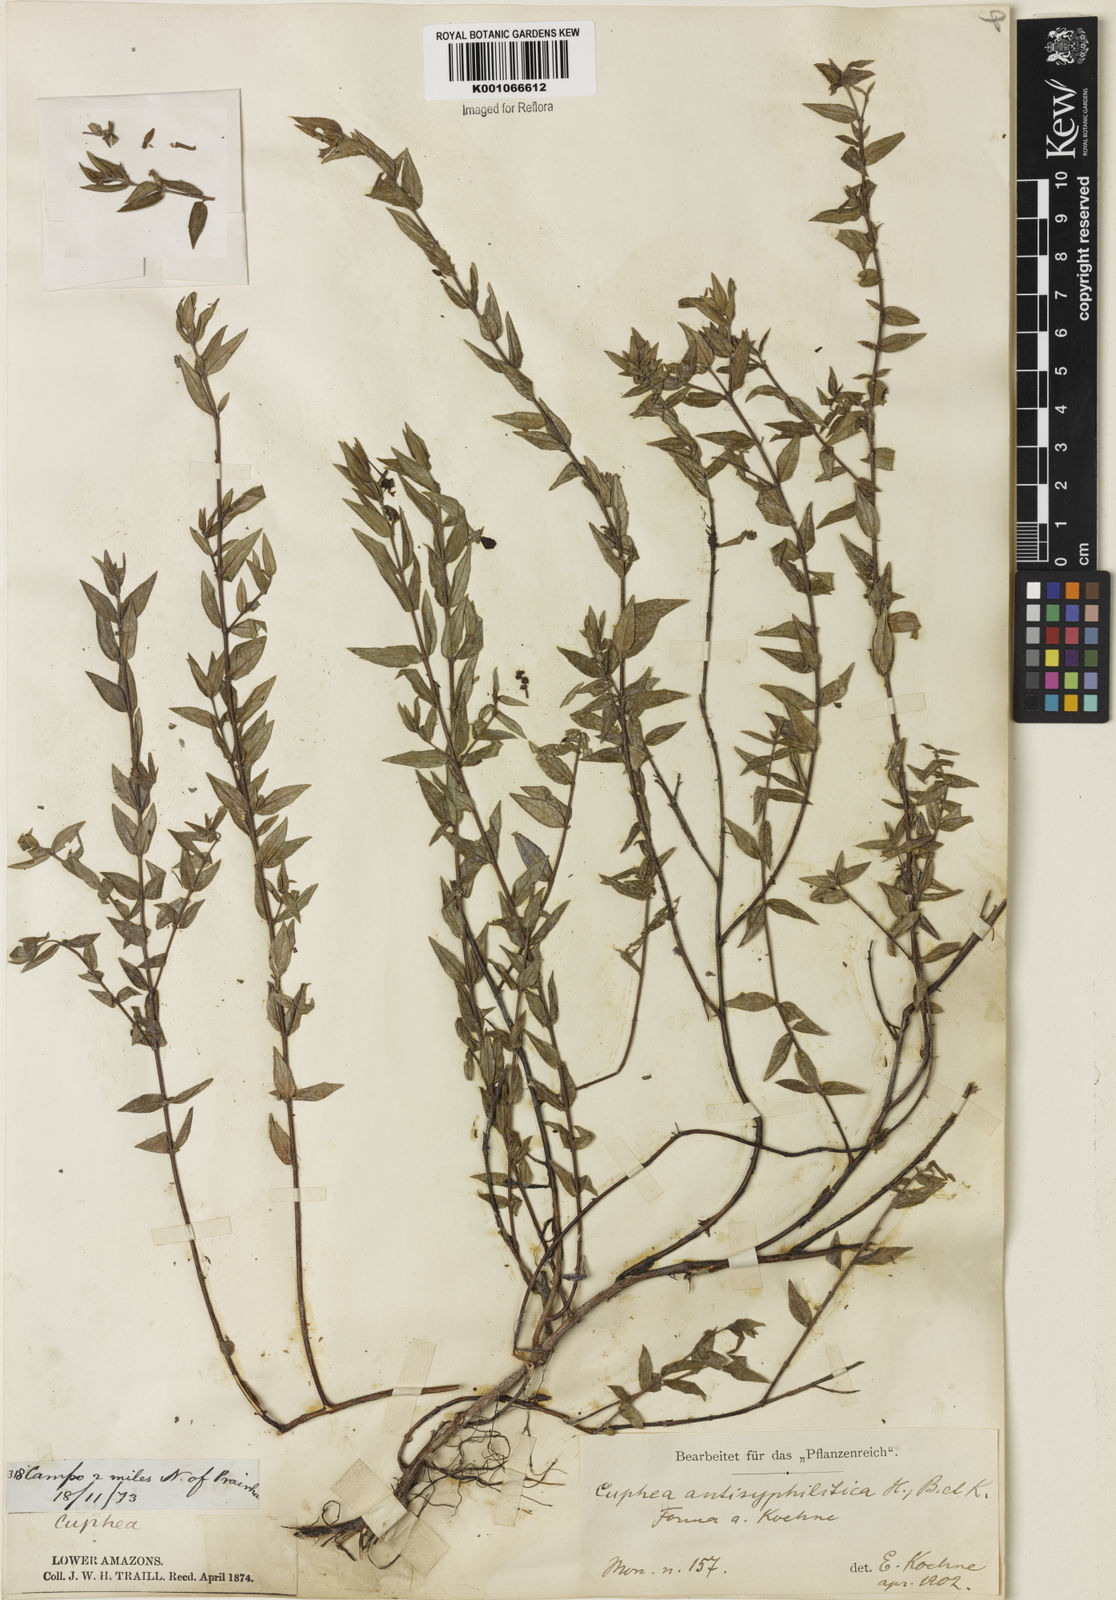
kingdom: Plantae
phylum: Tracheophyta
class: Magnoliopsida
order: Myrtales
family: Lythraceae
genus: Cuphea
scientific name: Cuphea antisyphilitica
